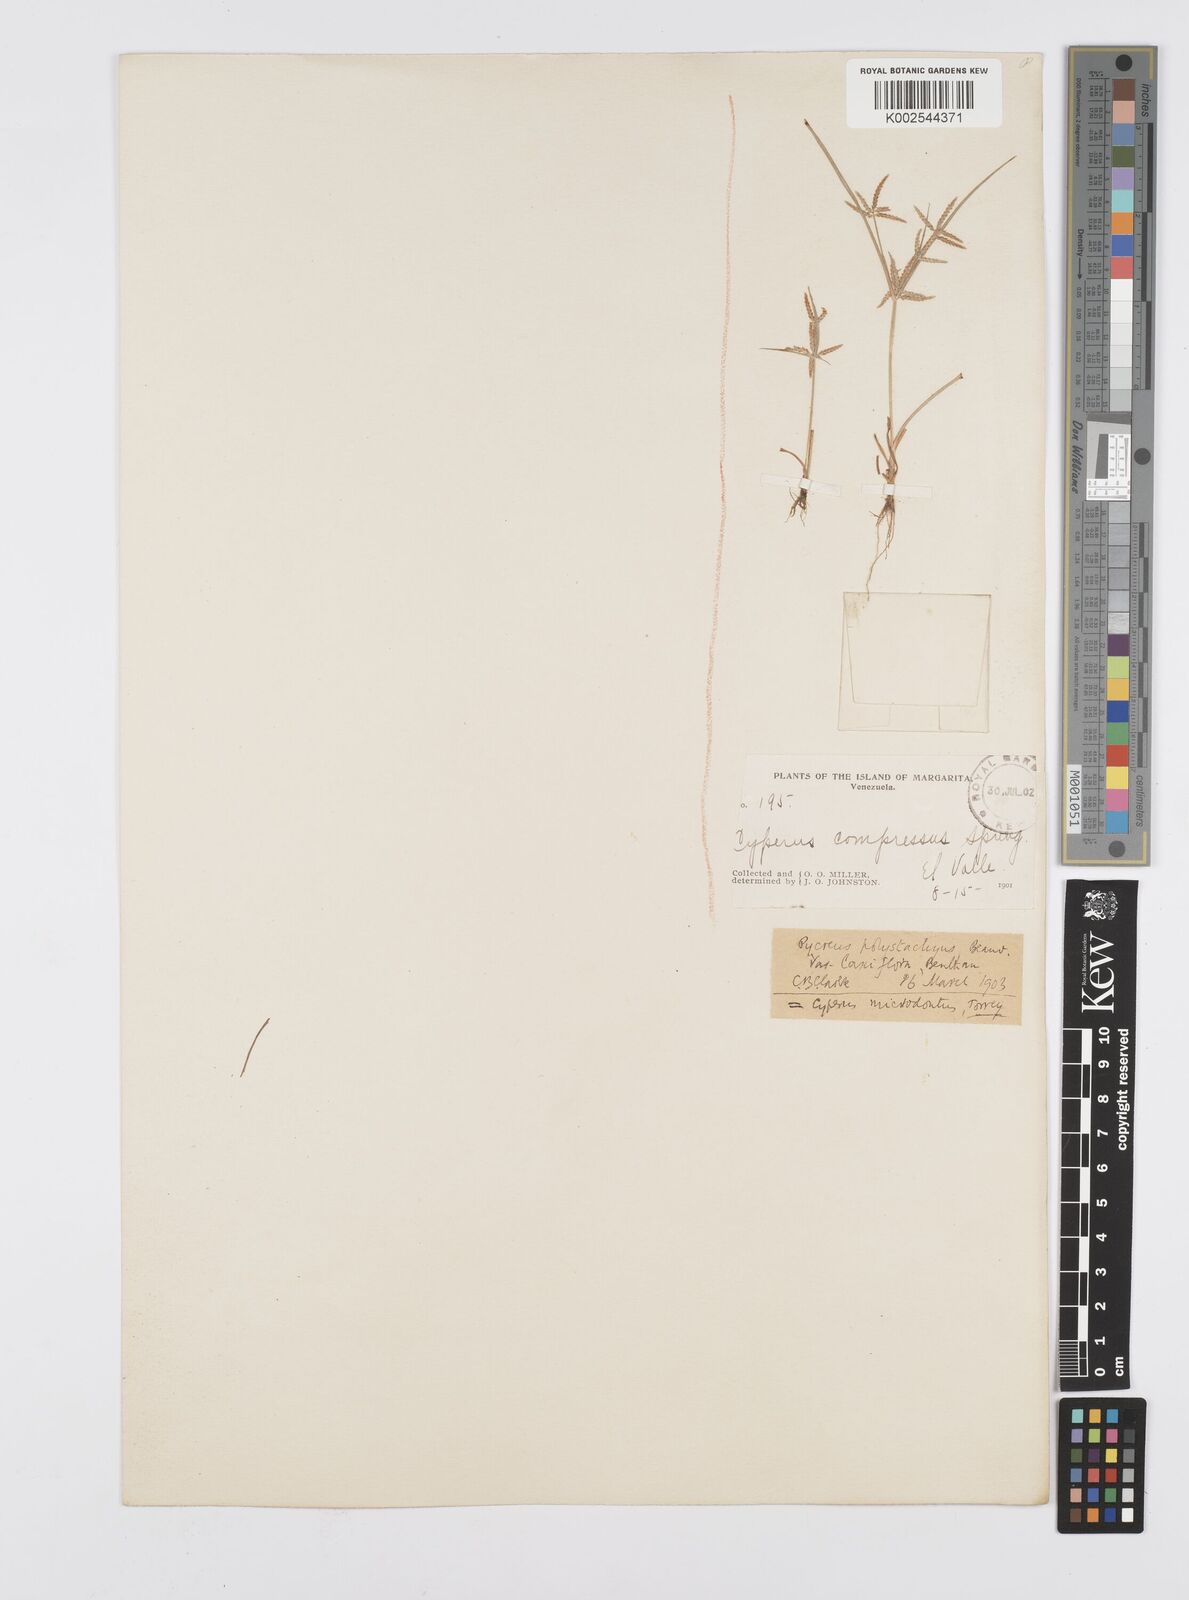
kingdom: Plantae
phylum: Tracheophyta
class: Liliopsida
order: Poales
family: Cyperaceae
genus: Cyperus
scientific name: Cyperus polystachyos
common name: Bunchy flat sedge
